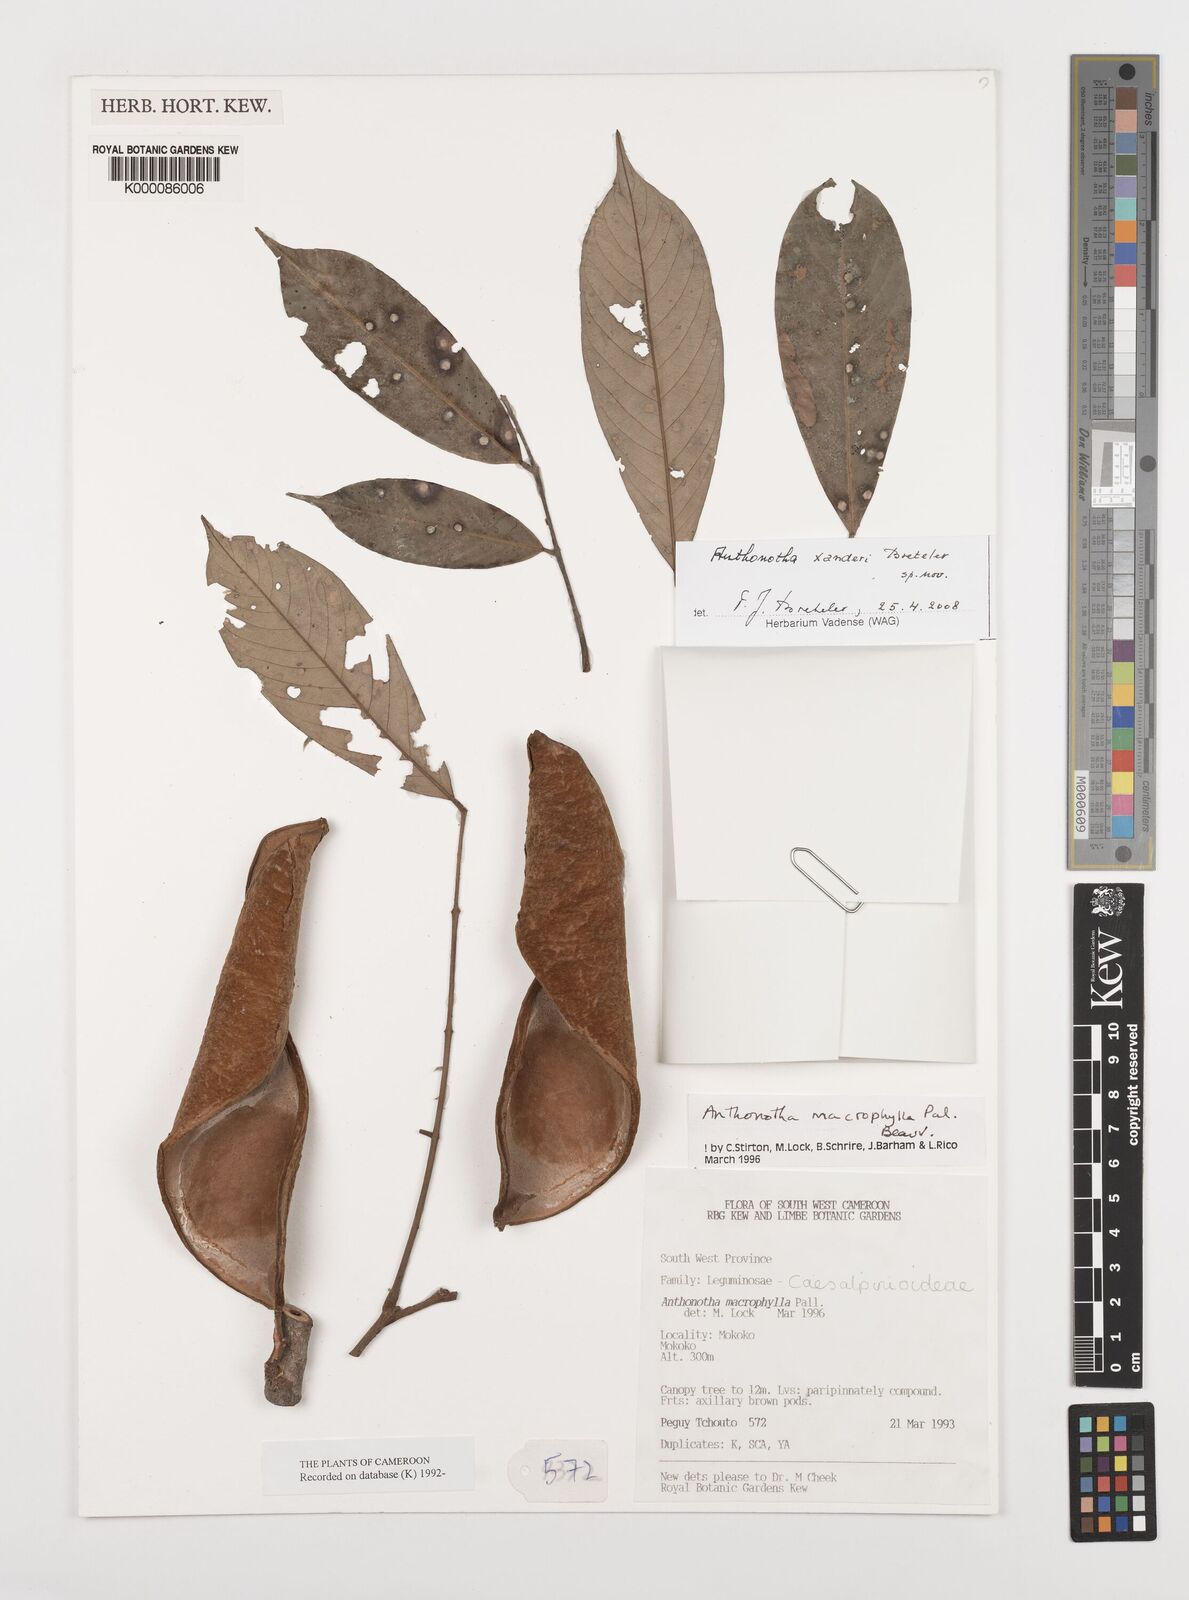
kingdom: Plantae
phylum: Tracheophyta
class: Magnoliopsida
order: Fabales
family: Fabaceae
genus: Anthonotha
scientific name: Anthonotha xanderi
